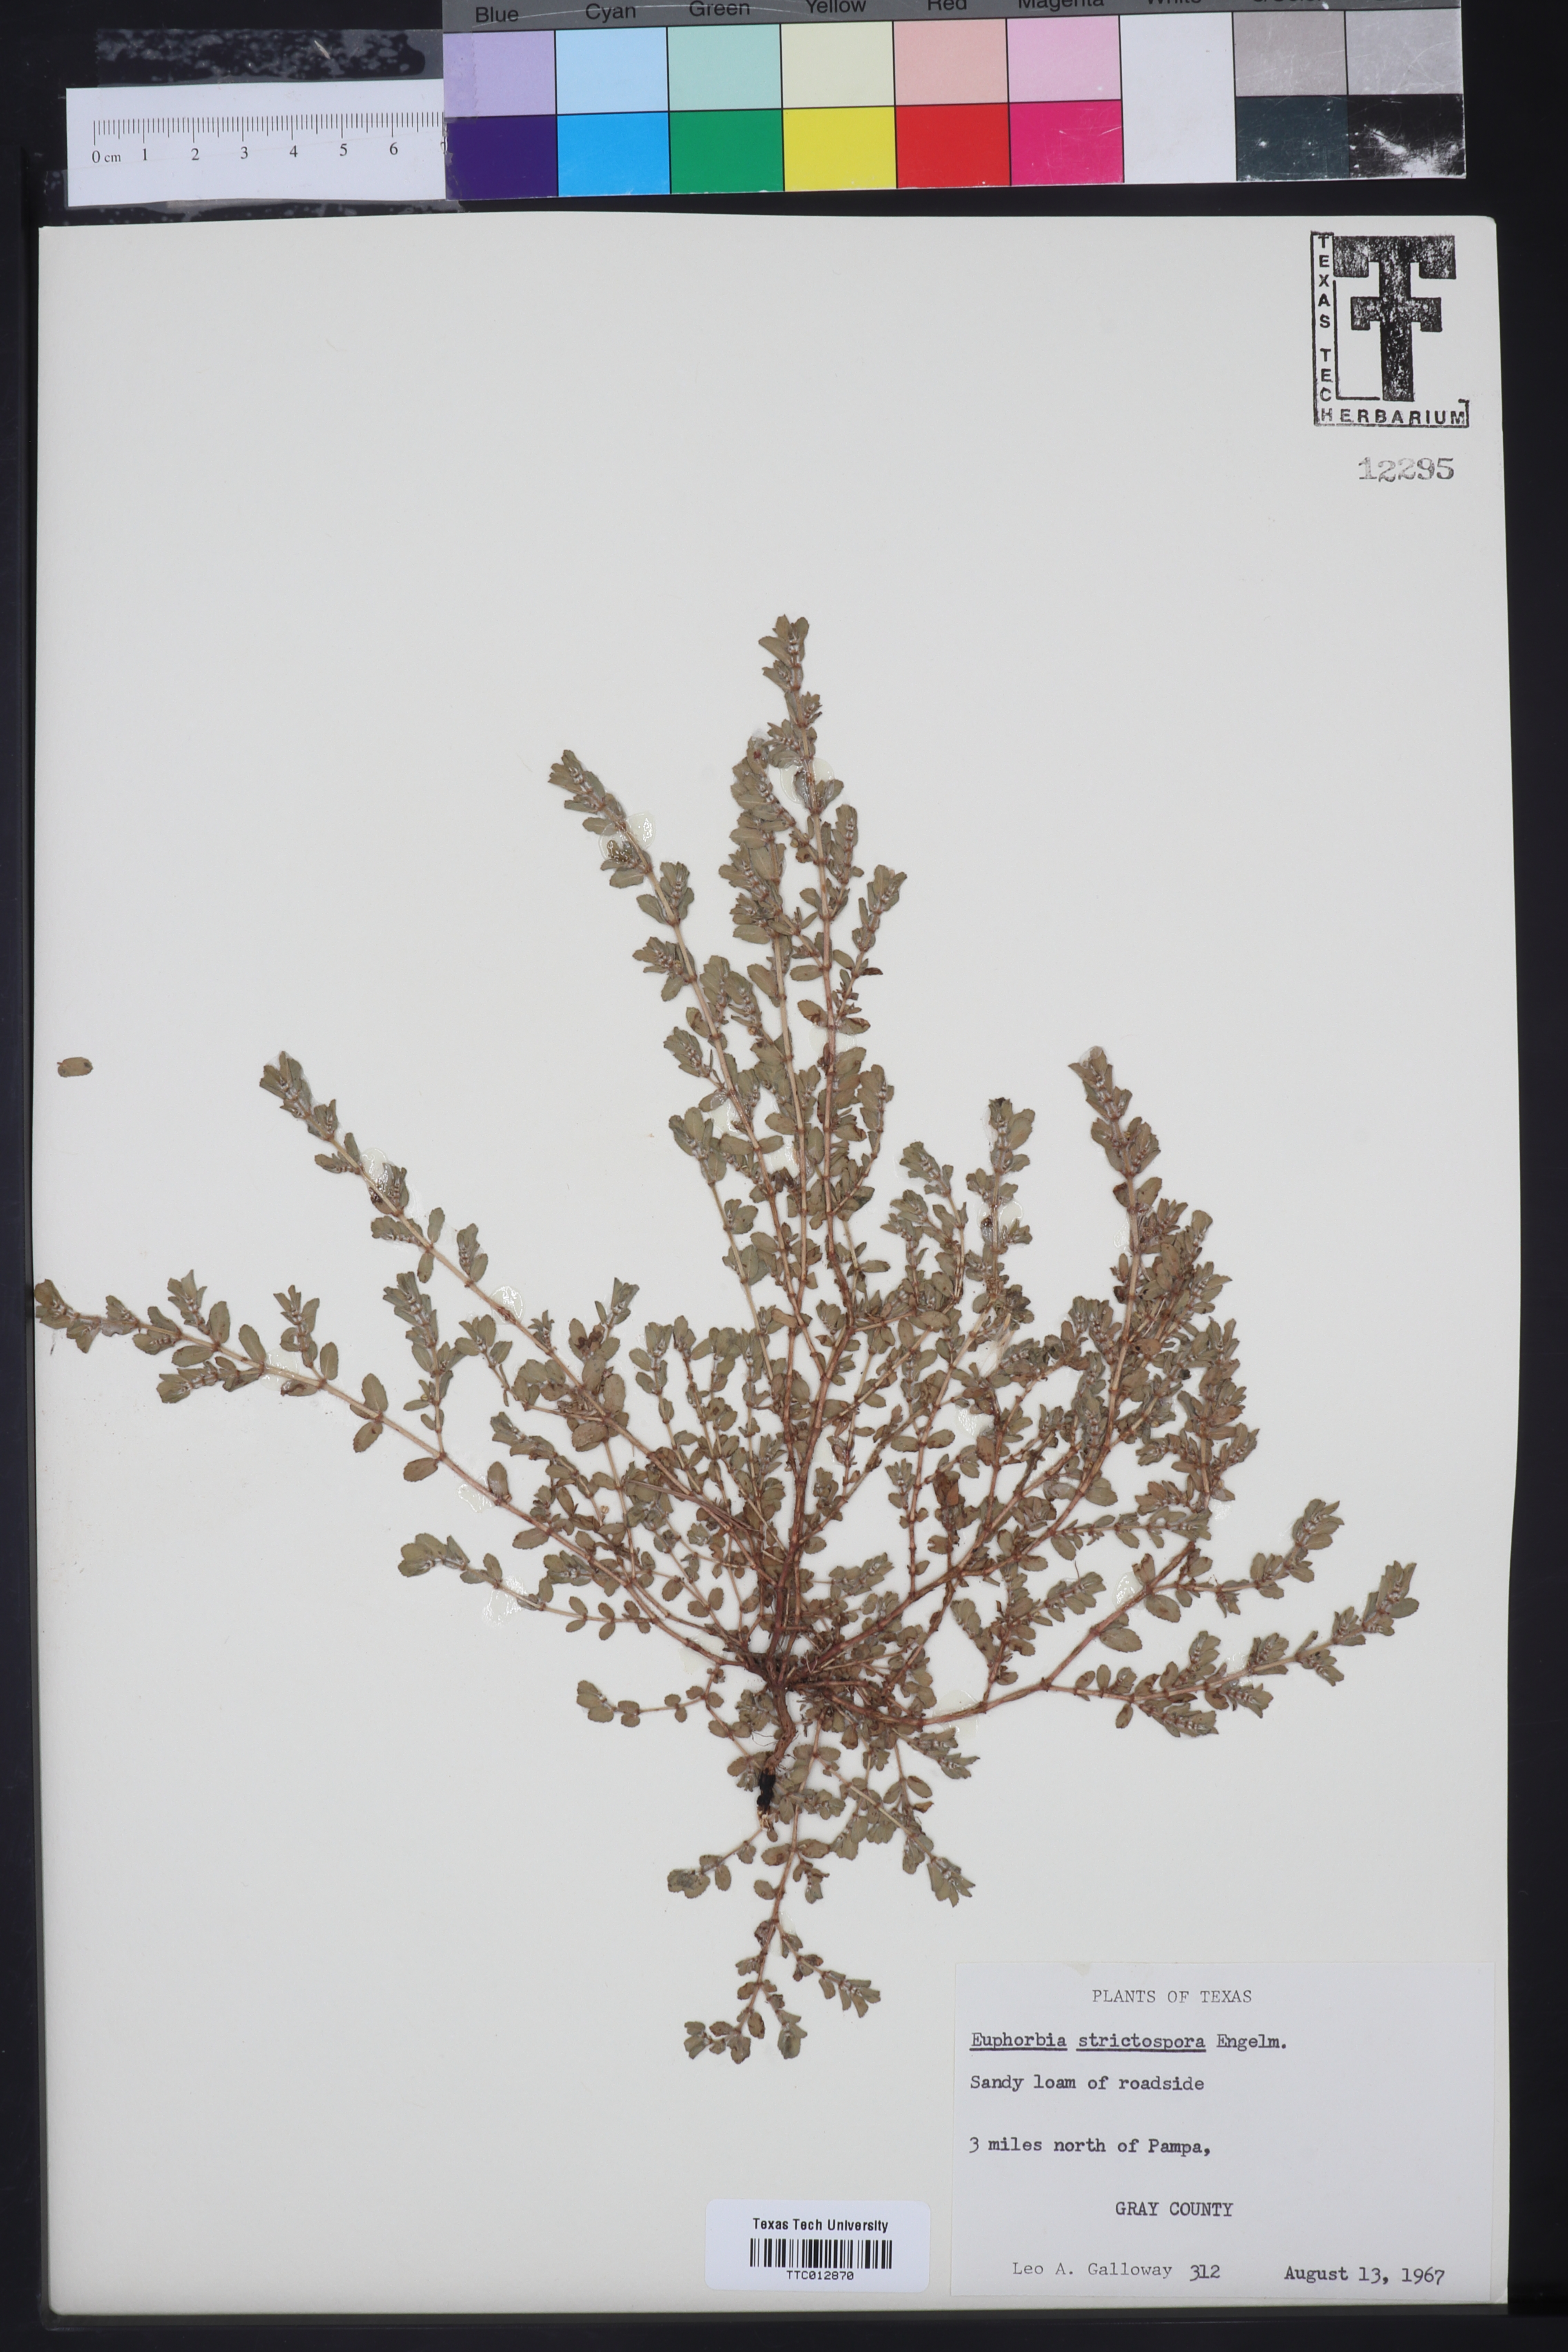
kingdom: Plantae
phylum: Tracheophyta
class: Magnoliopsida
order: Malpighiales
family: Euphorbiaceae
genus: Euphorbia
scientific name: Euphorbia
